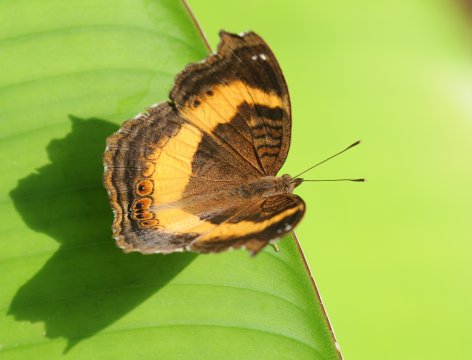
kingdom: Animalia
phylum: Arthropoda
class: Insecta
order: Lepidoptera
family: Nymphalidae
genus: Junonia
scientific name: Junonia terea
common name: Soldier Pansy
